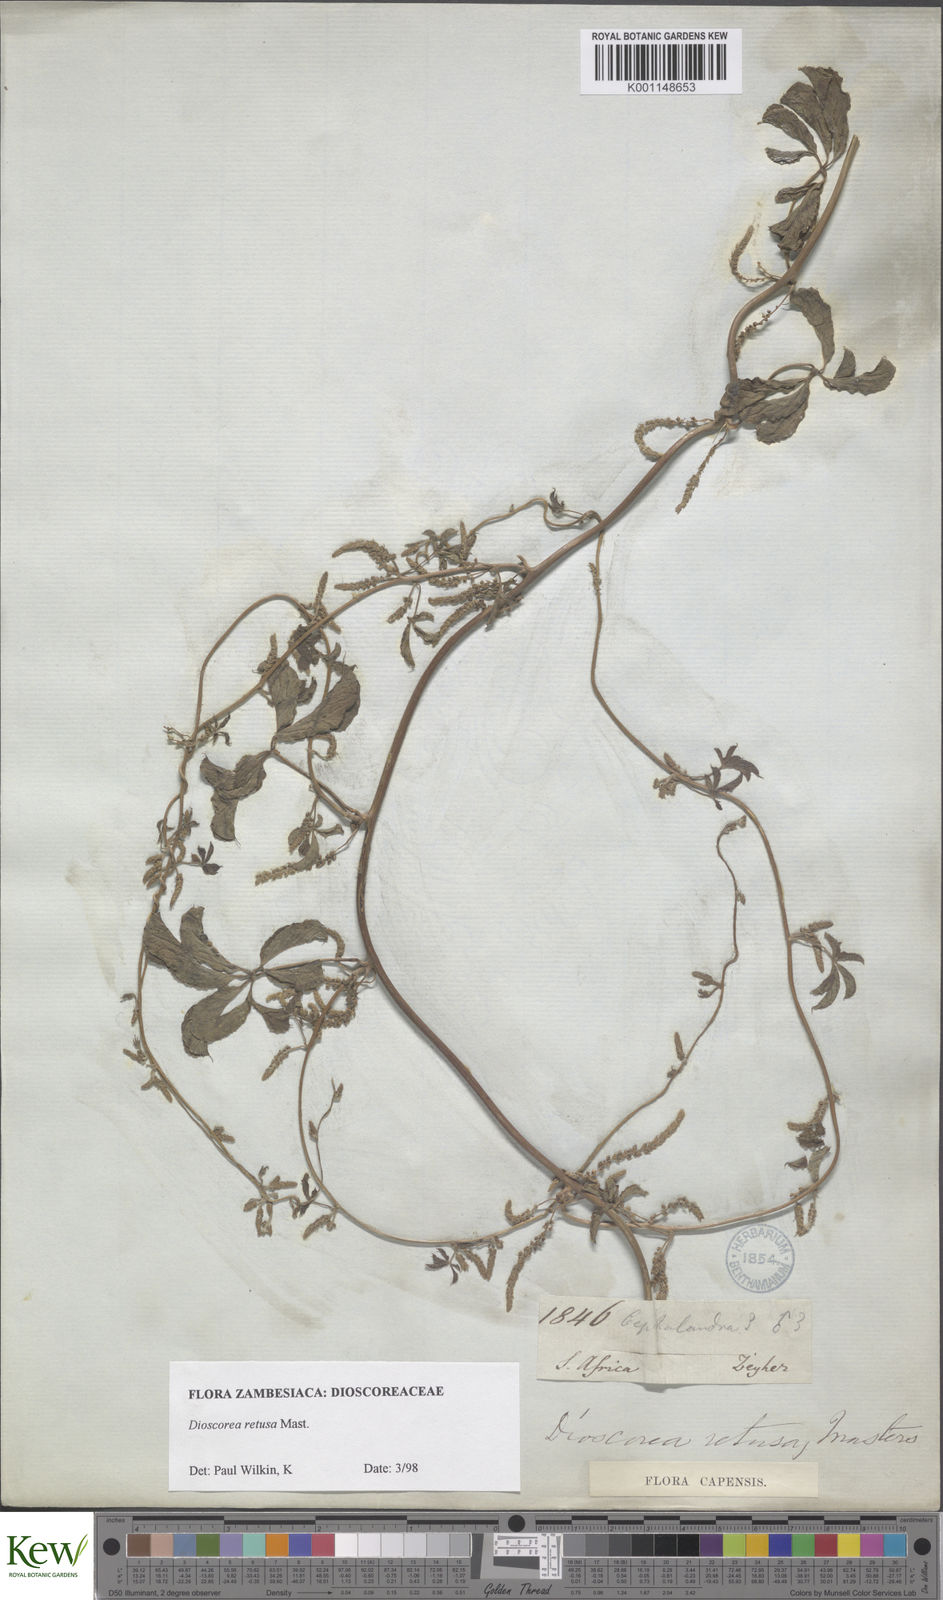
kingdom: Plantae
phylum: Tracheophyta
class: Liliopsida
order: Dioscoreales
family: Dioscoreaceae
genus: Dioscorea
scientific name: Dioscorea retusa
